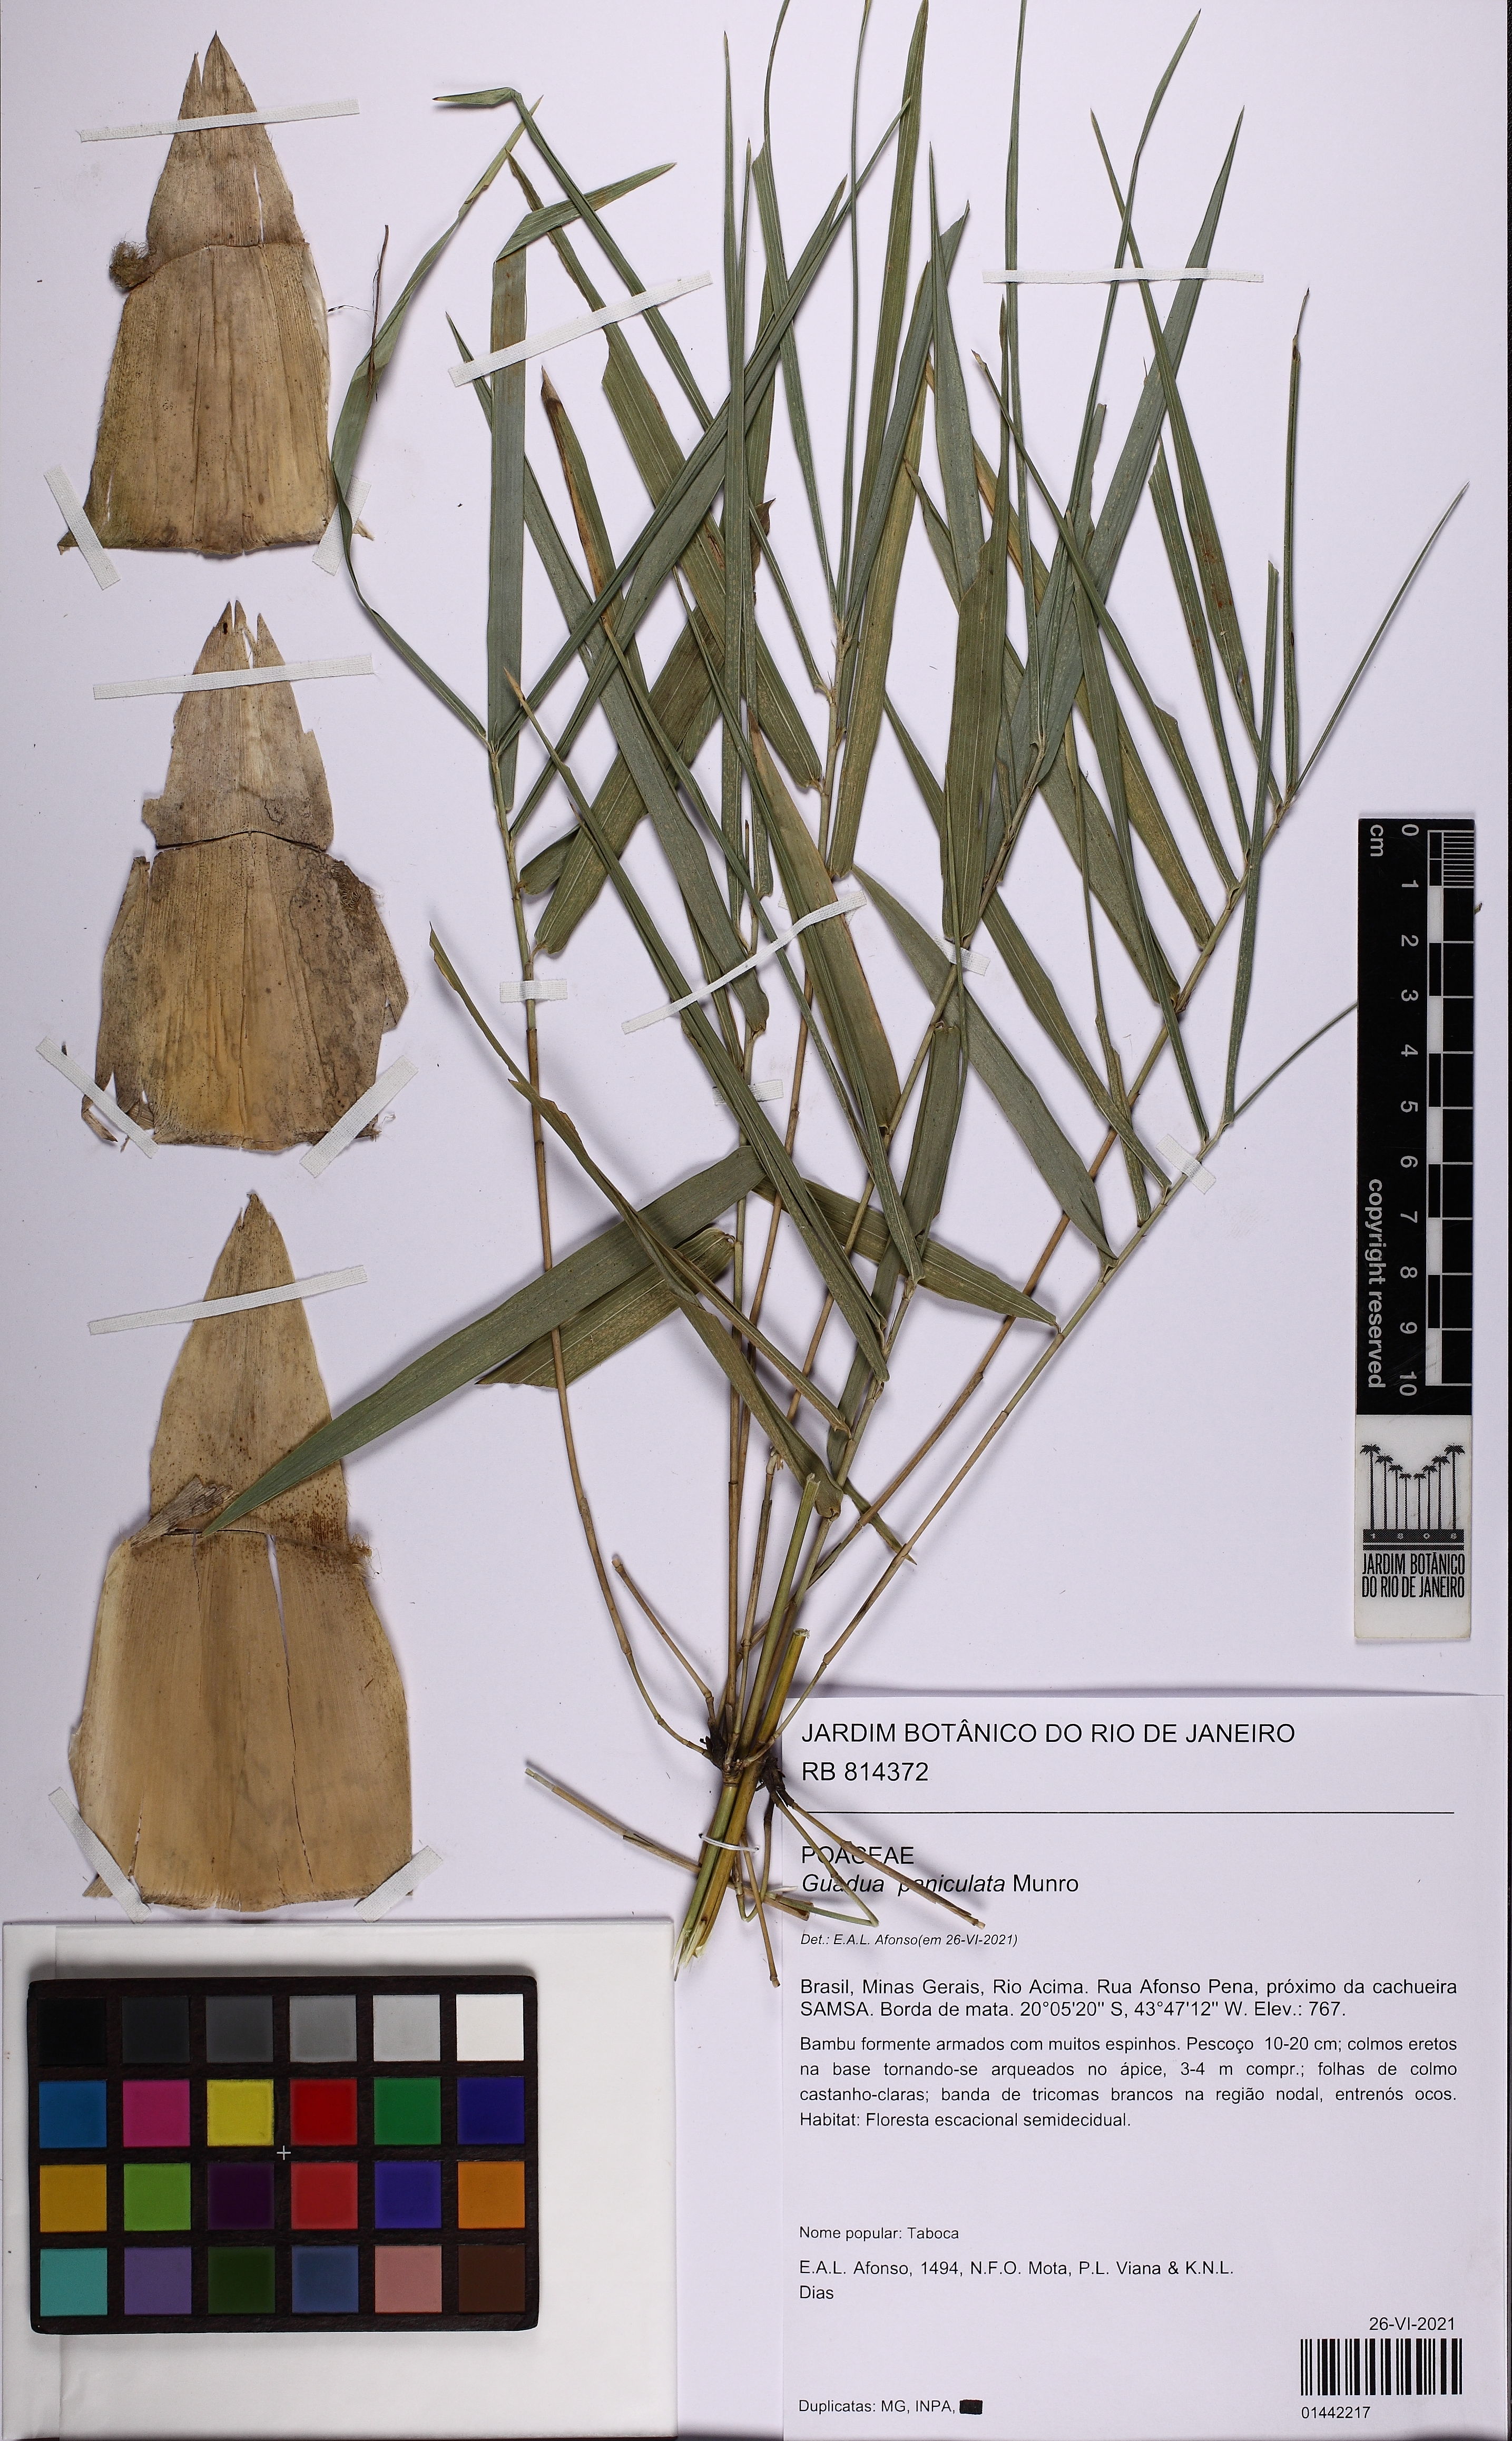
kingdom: Plantae
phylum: Tracheophyta
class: Liliopsida
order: Poales
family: Poaceae
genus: Guadua
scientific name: Guadua paniculata
